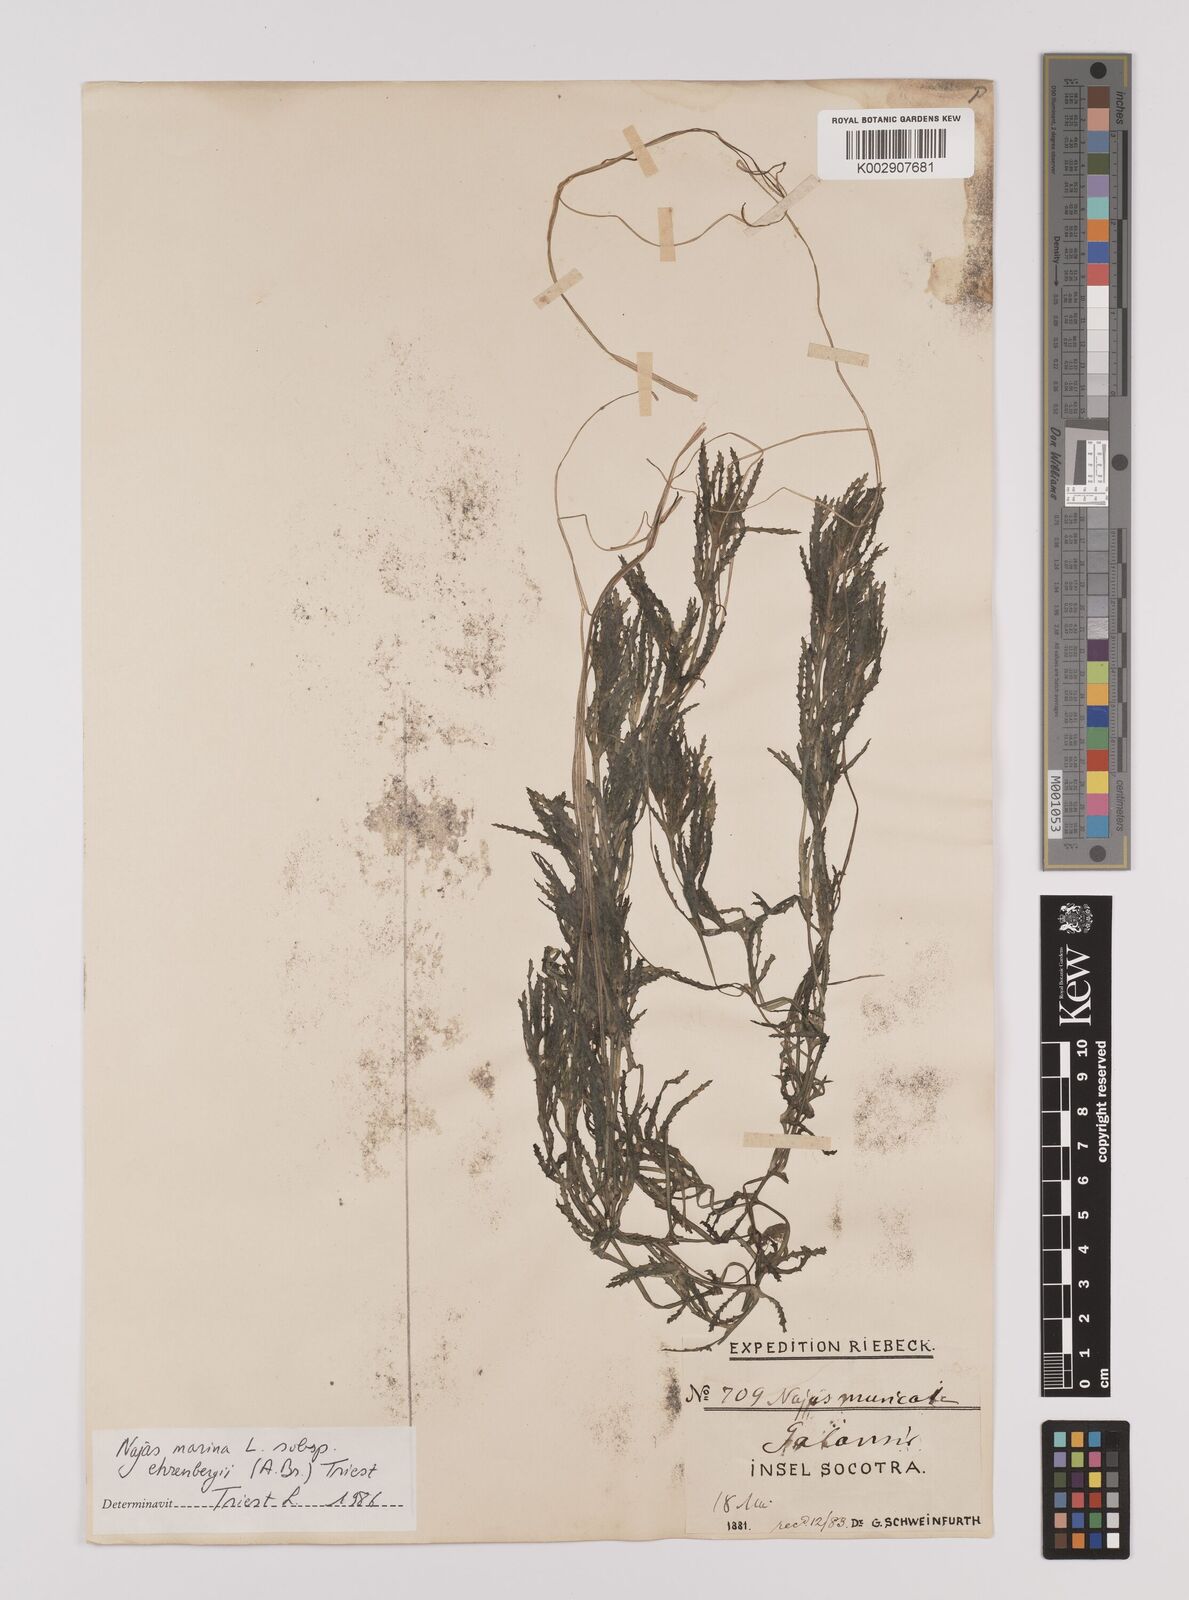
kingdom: Plantae
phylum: Tracheophyta
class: Liliopsida
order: Alismatales
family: Hydrocharitaceae
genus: Najas
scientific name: Najas major
